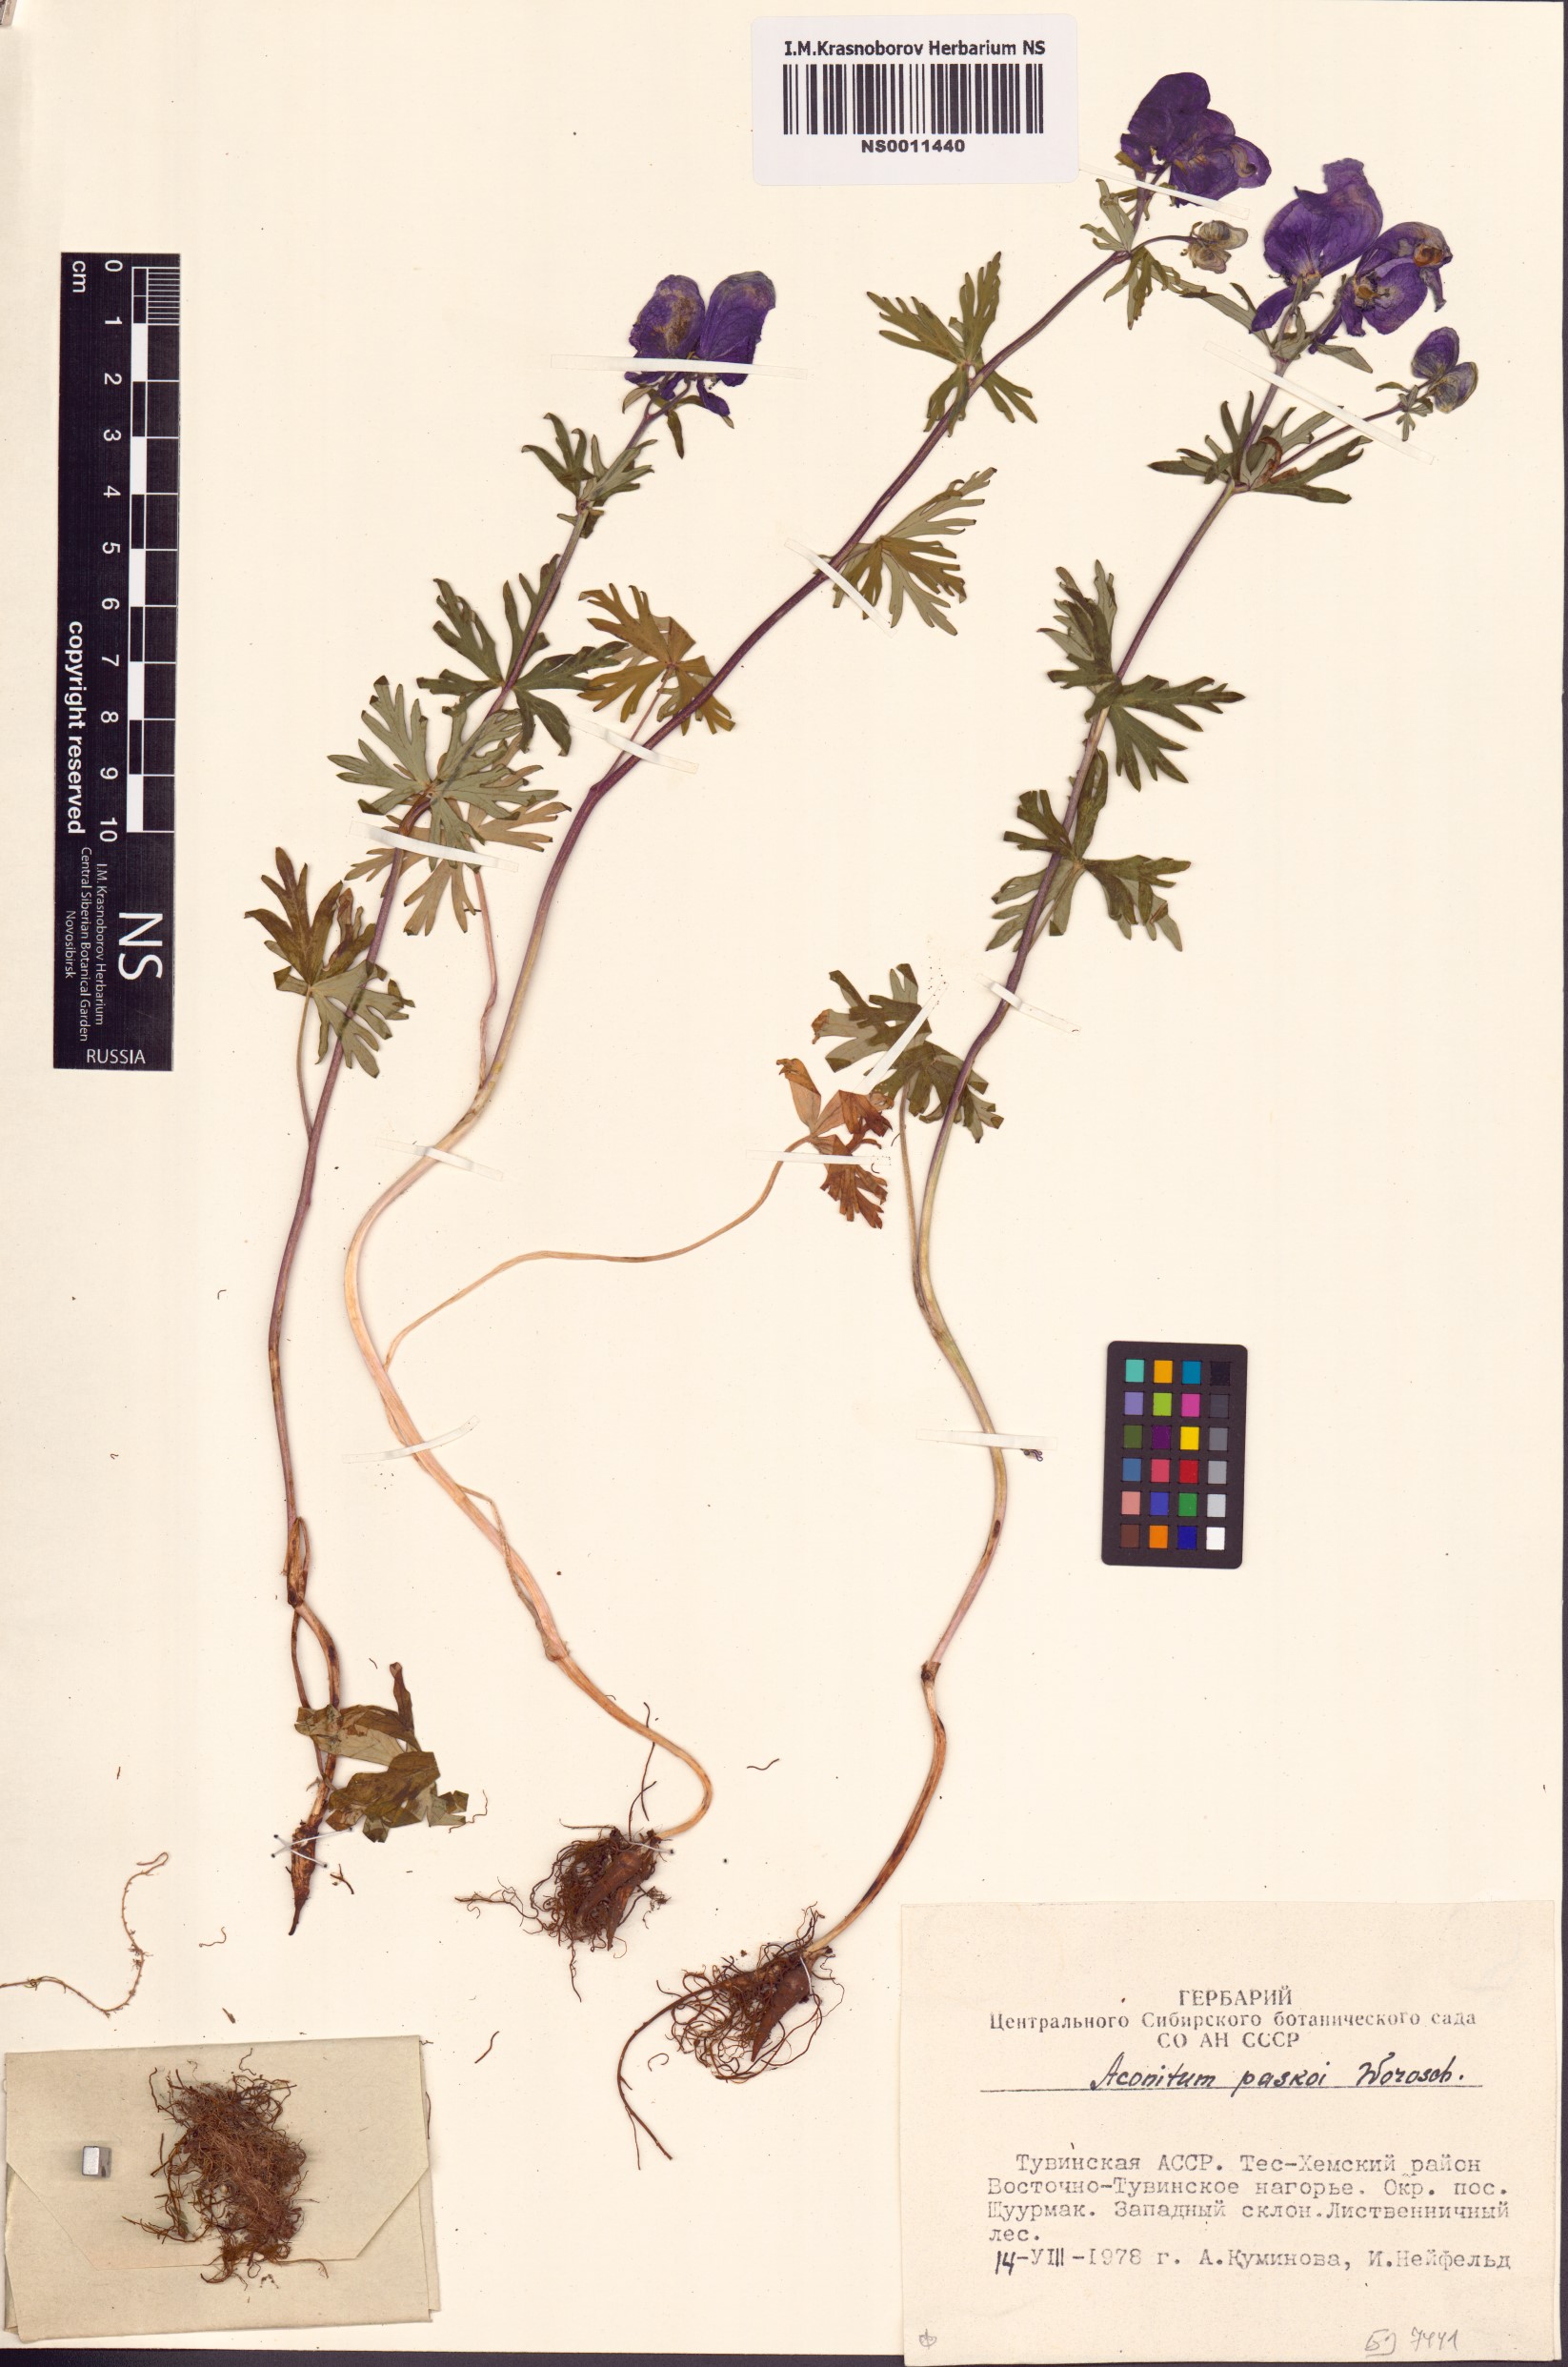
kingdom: Plantae
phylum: Tracheophyta
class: Magnoliopsida
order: Ranunculales
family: Ranunculaceae
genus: Aconitum
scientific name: Aconitum pascoi
